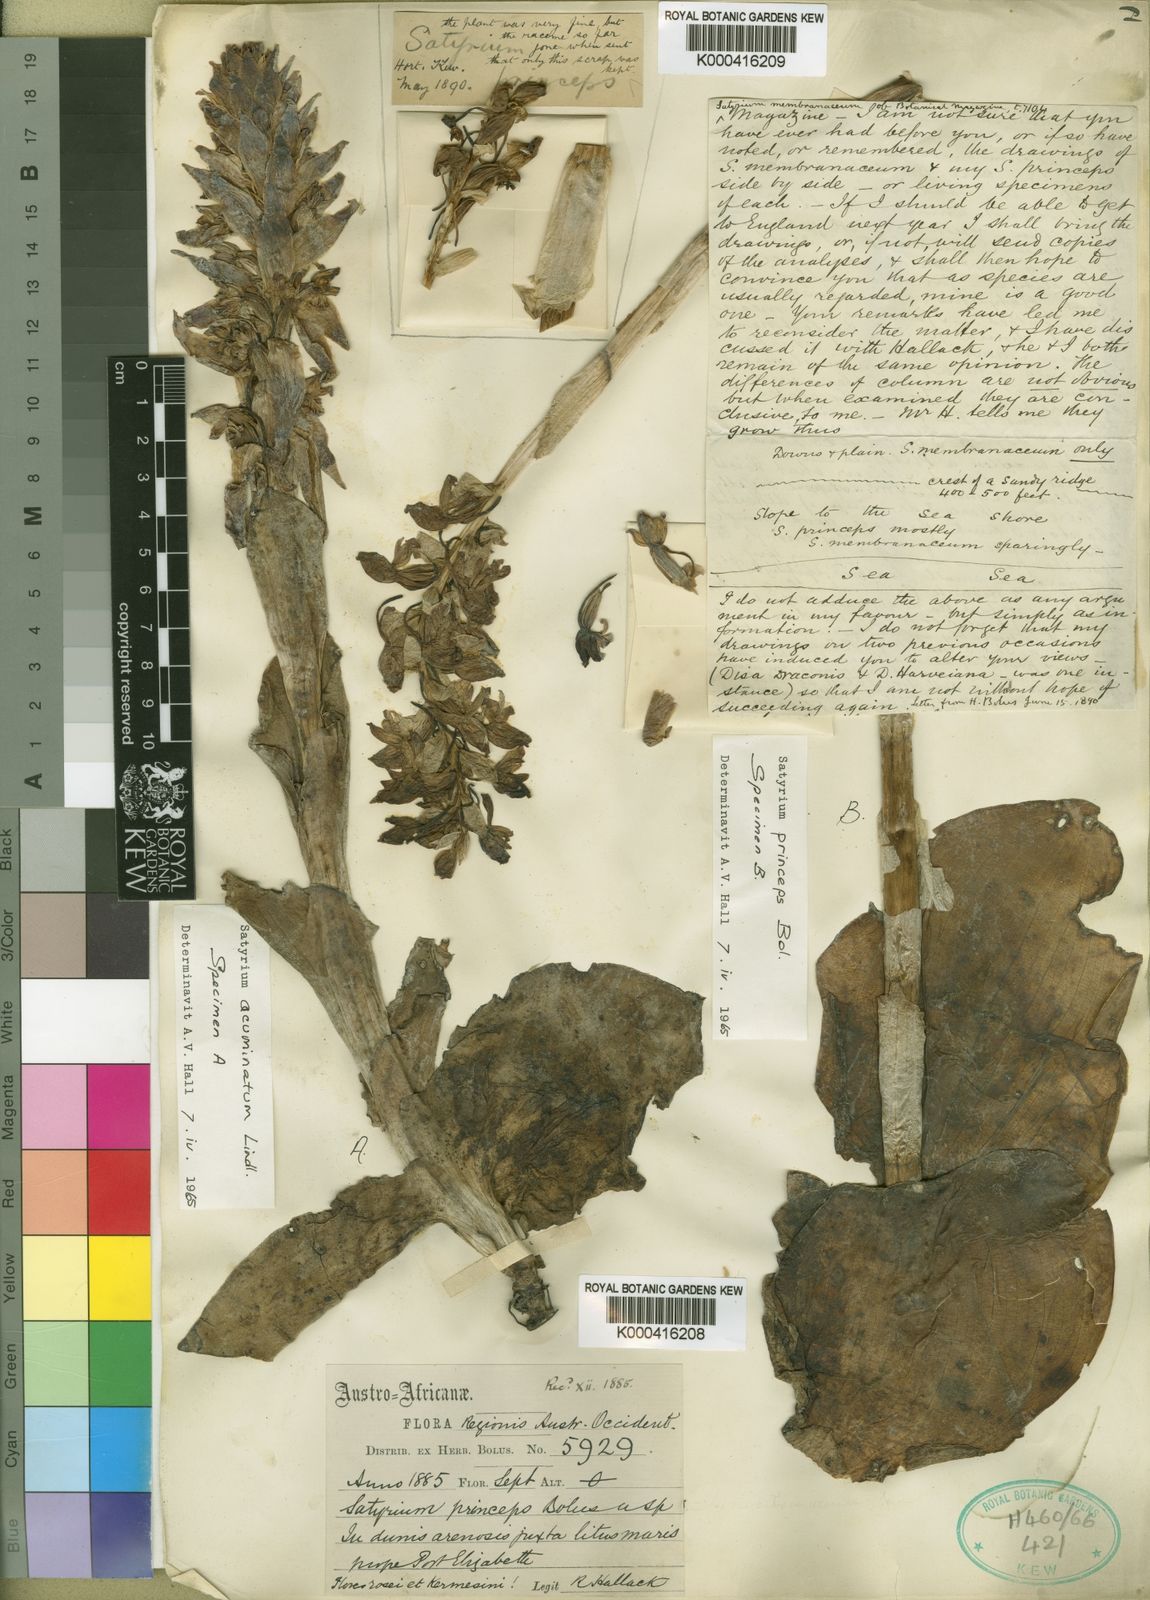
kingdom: Plantae
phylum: Tracheophyta
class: Liliopsida
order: Asparagales
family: Orchidaceae
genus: Satyrium
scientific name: Satyrium princeps
